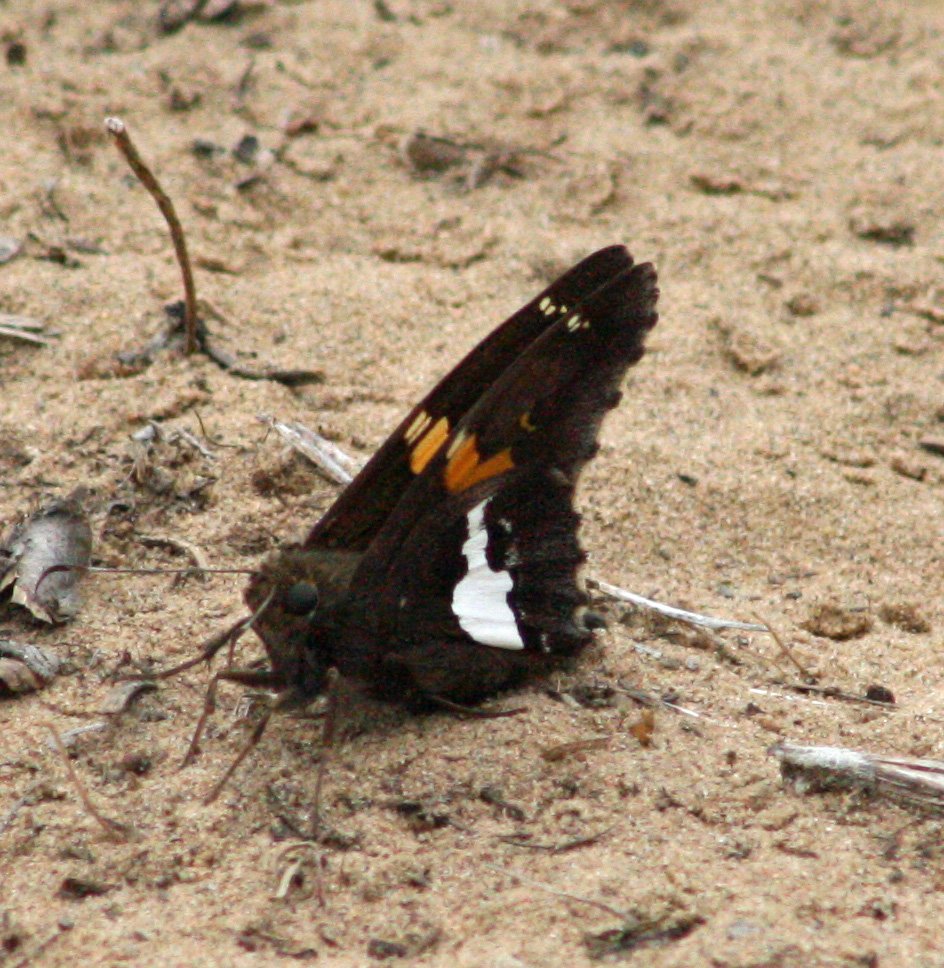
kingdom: Animalia
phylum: Arthropoda
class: Insecta
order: Lepidoptera
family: Hesperiidae
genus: Epargyreus
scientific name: Epargyreus clarus
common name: Silver-spotted Skipper
